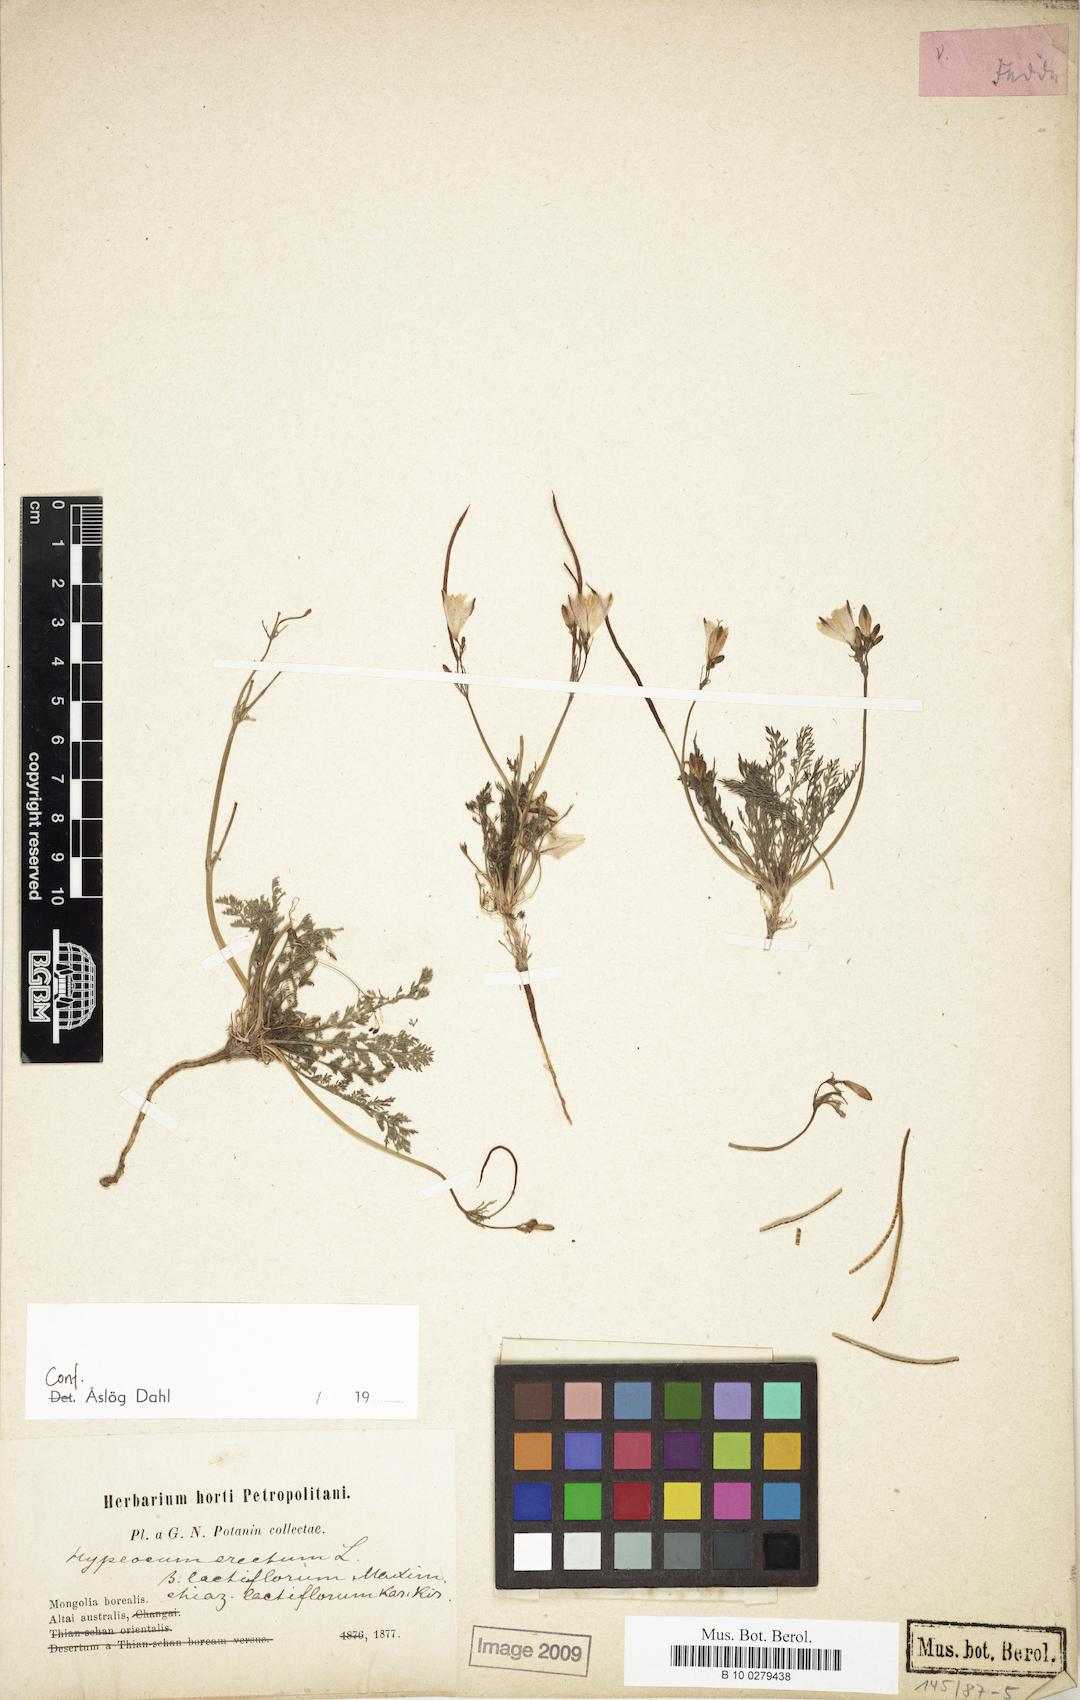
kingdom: Plantae
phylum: Tracheophyta
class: Magnoliopsida
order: Ranunculales
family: Papaveraceae
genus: Hypecoum
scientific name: Hypecoum lactiflorum
